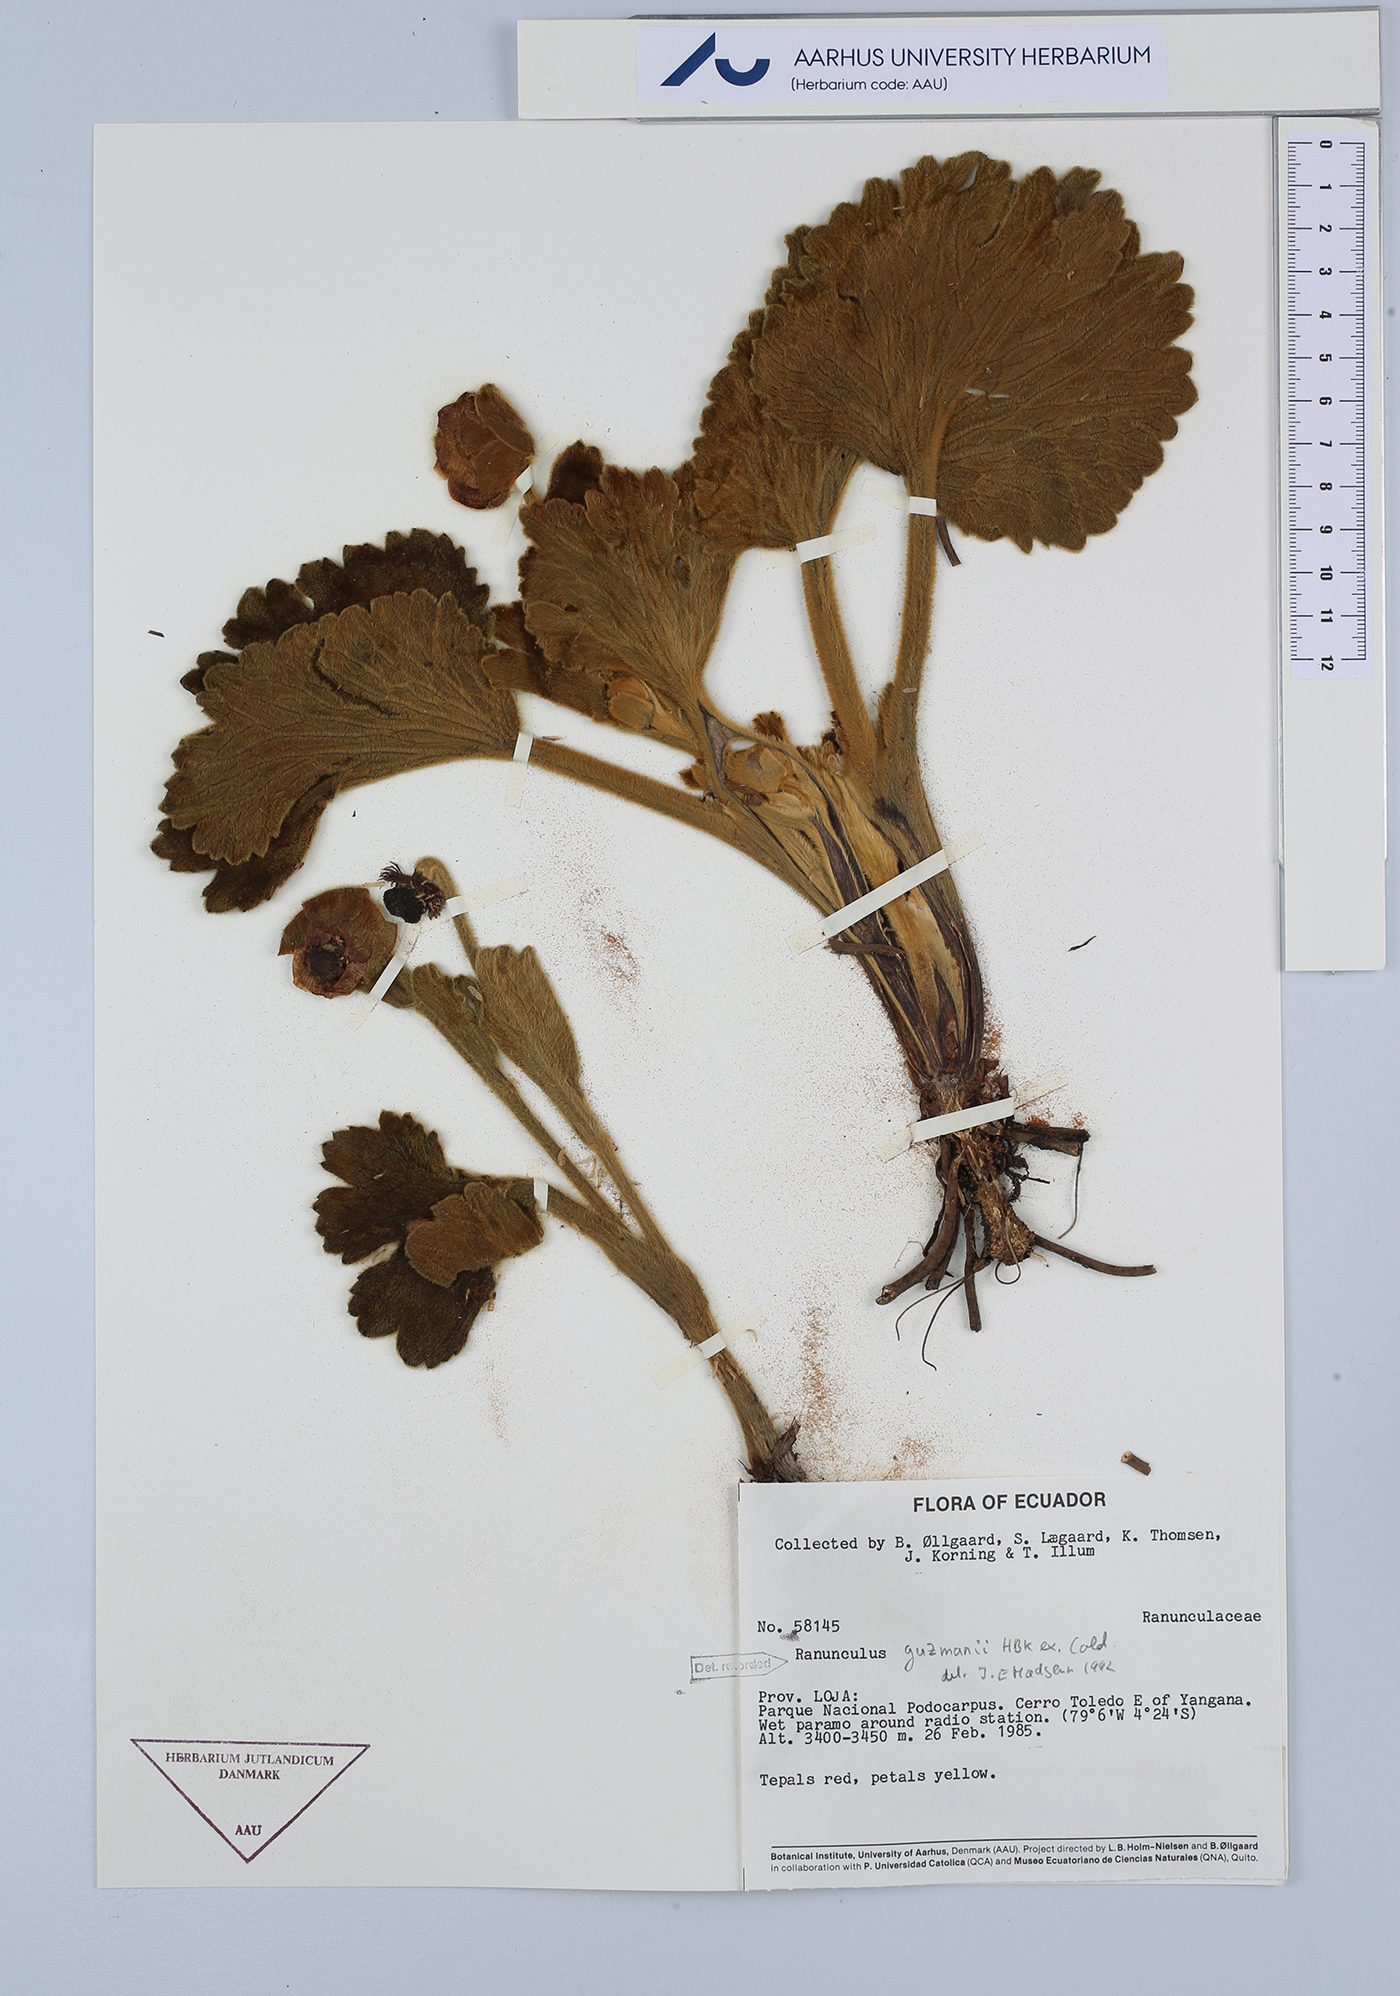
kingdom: Plantae
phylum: Tracheophyta
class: Magnoliopsida
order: Ranunculales
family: Ranunculaceae
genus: Krapfia
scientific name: Krapfia ranunculina
